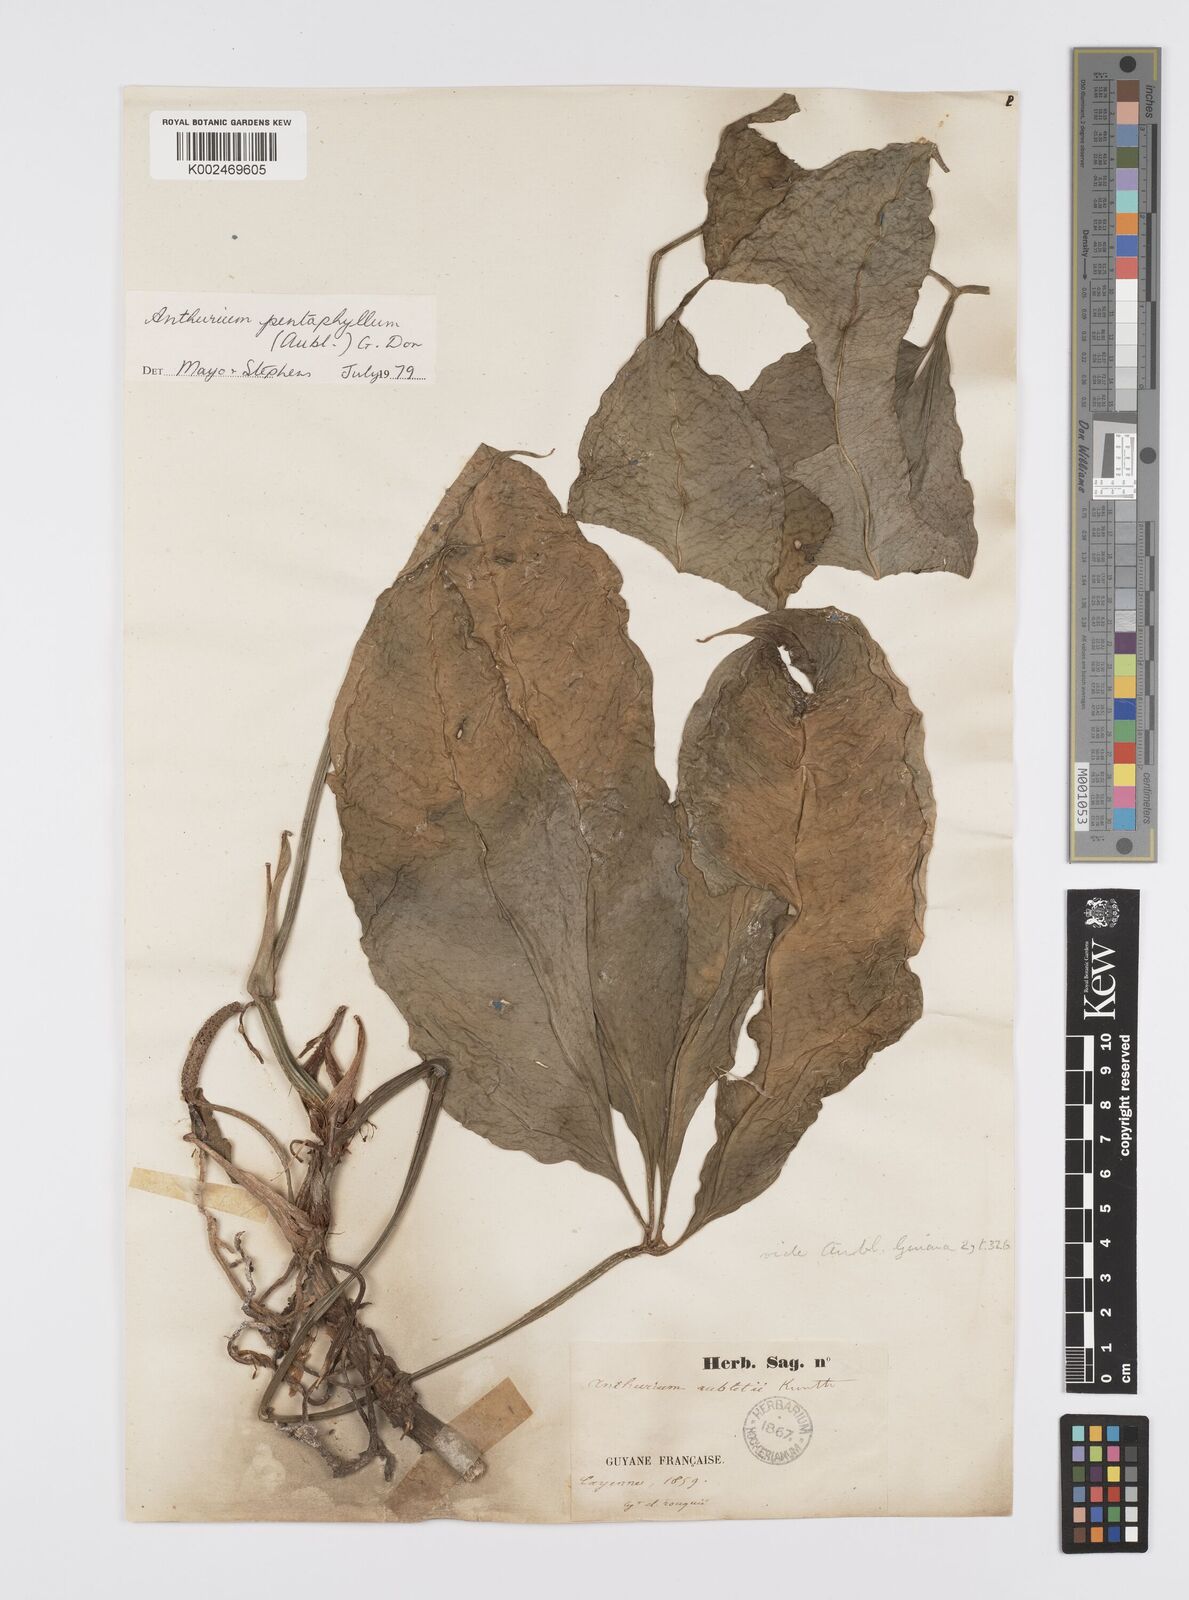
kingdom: Plantae
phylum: Tracheophyta
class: Liliopsida
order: Alismatales
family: Araceae
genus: Anthurium
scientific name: Anthurium pentaphyllum
